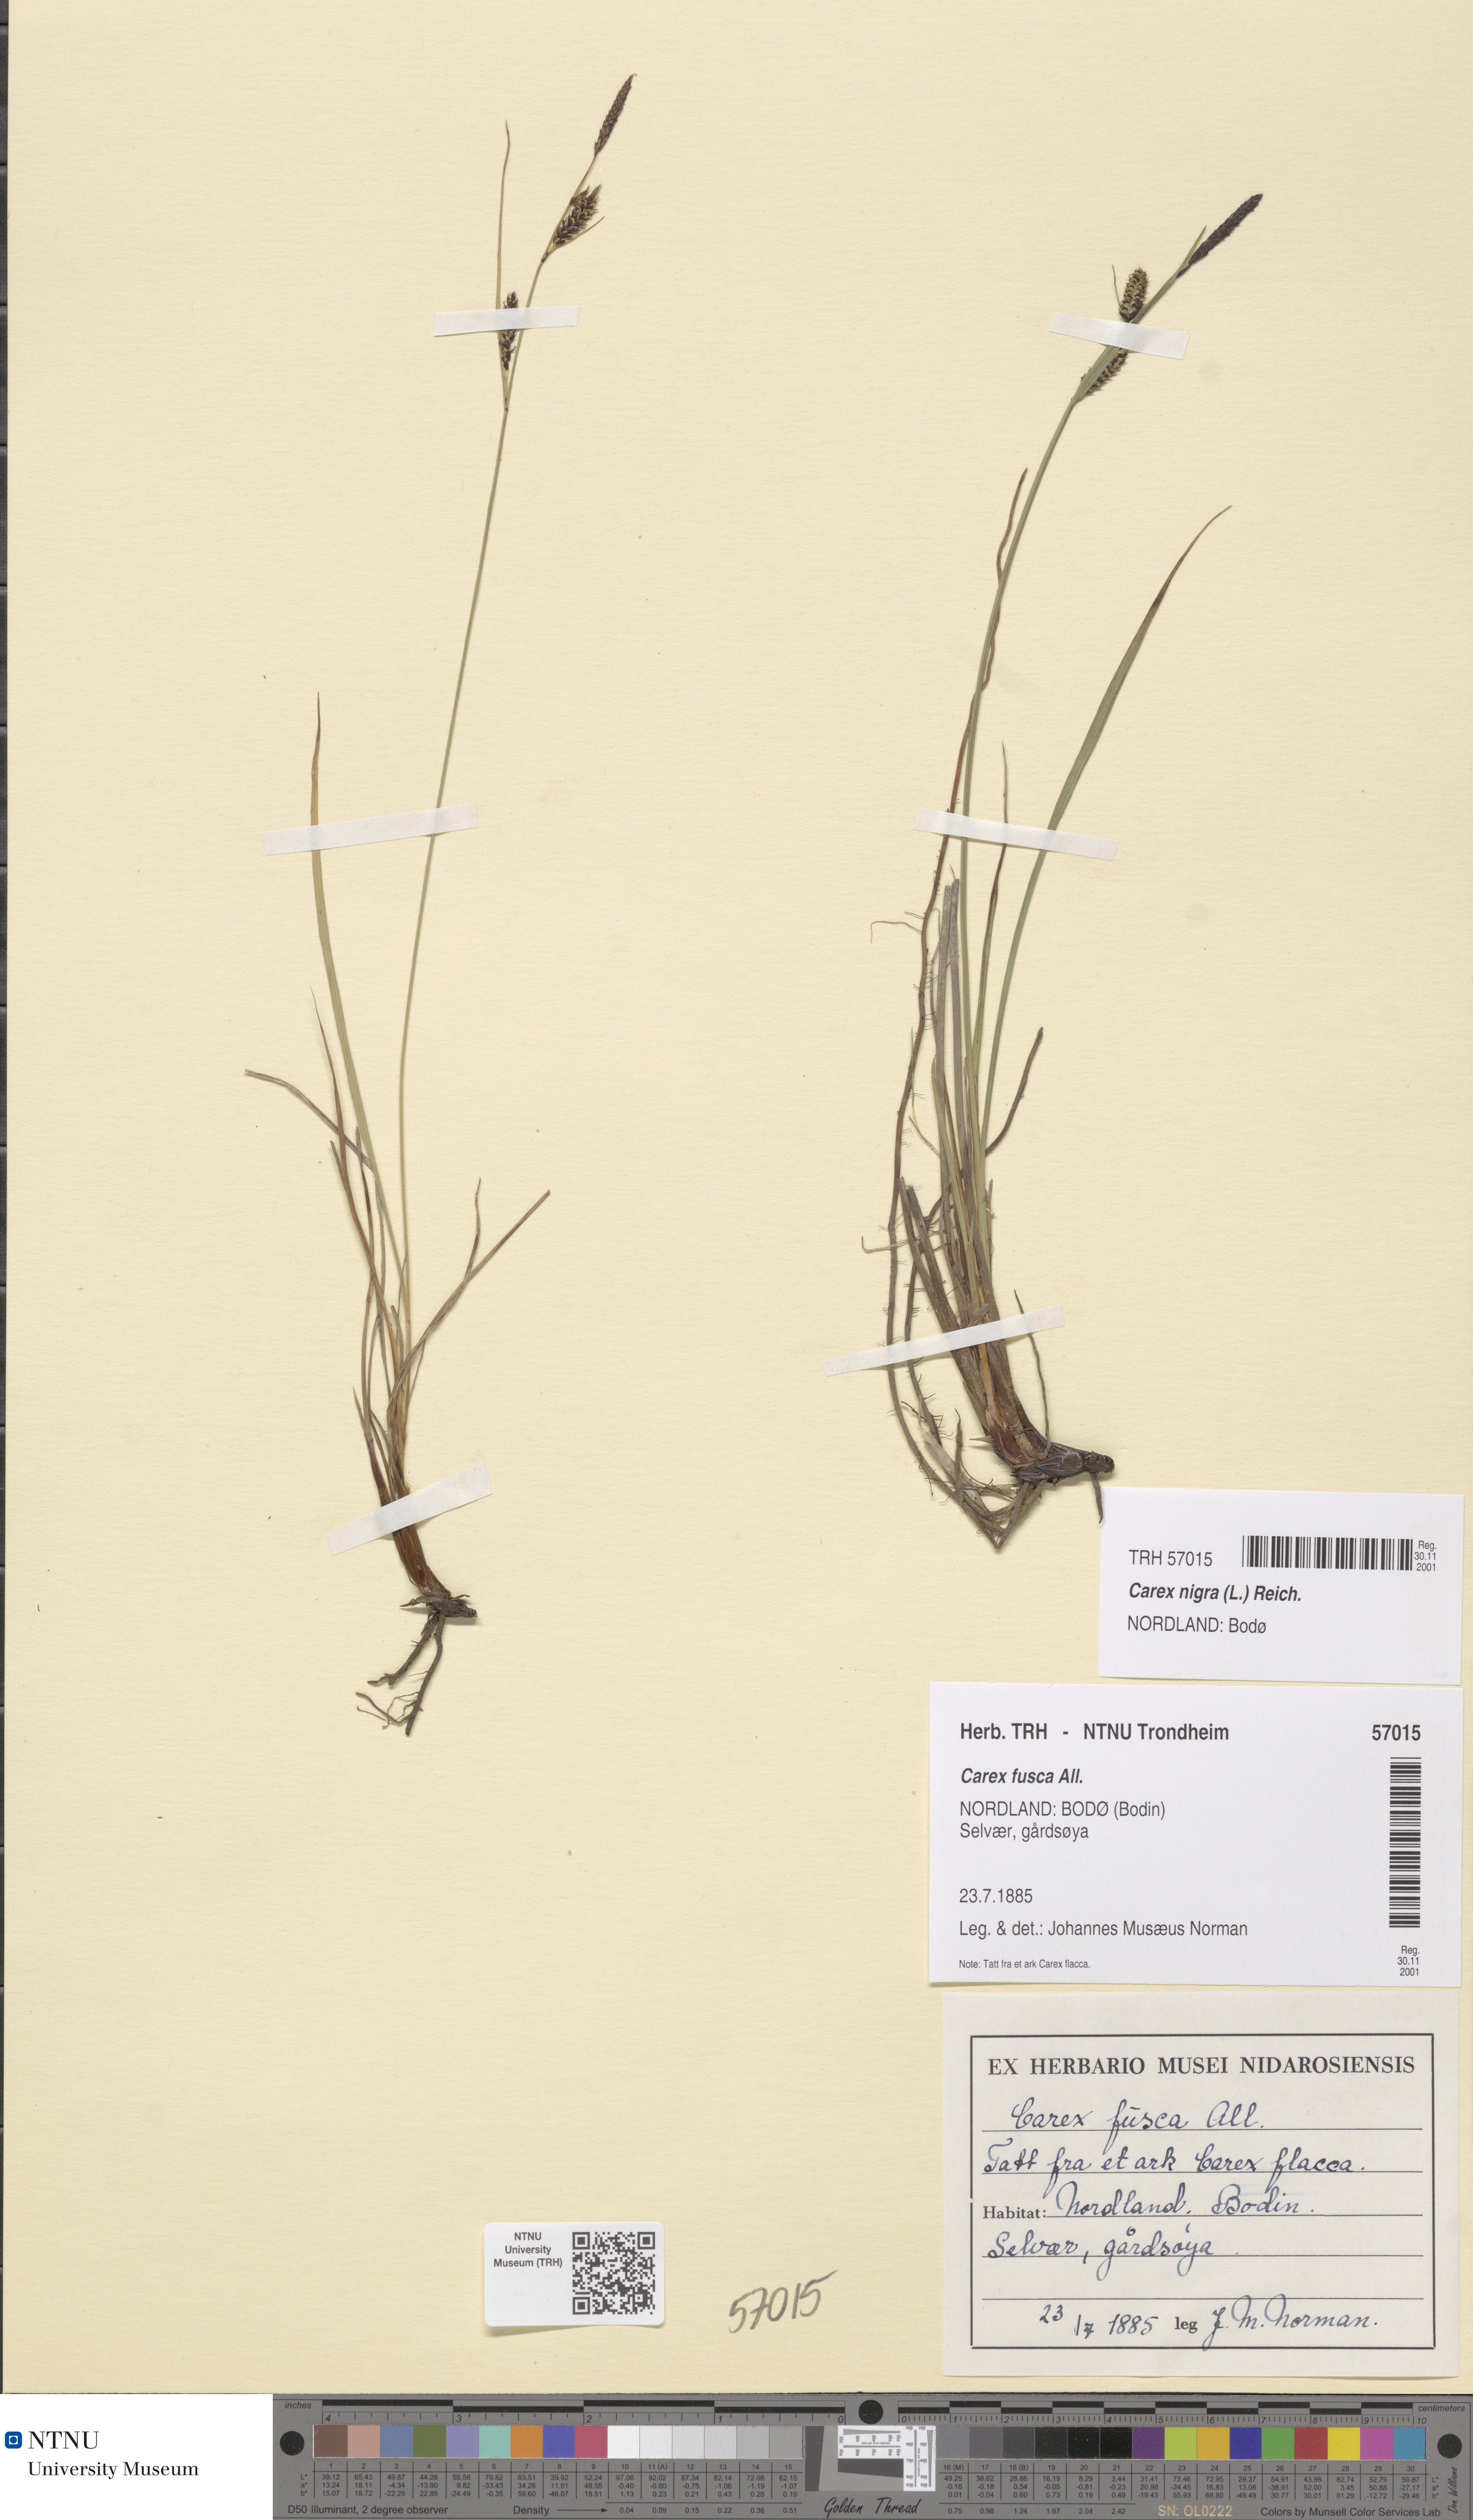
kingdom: Plantae
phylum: Tracheophyta
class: Liliopsida
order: Poales
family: Cyperaceae
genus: Carex
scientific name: Carex nigra
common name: Common sedge
